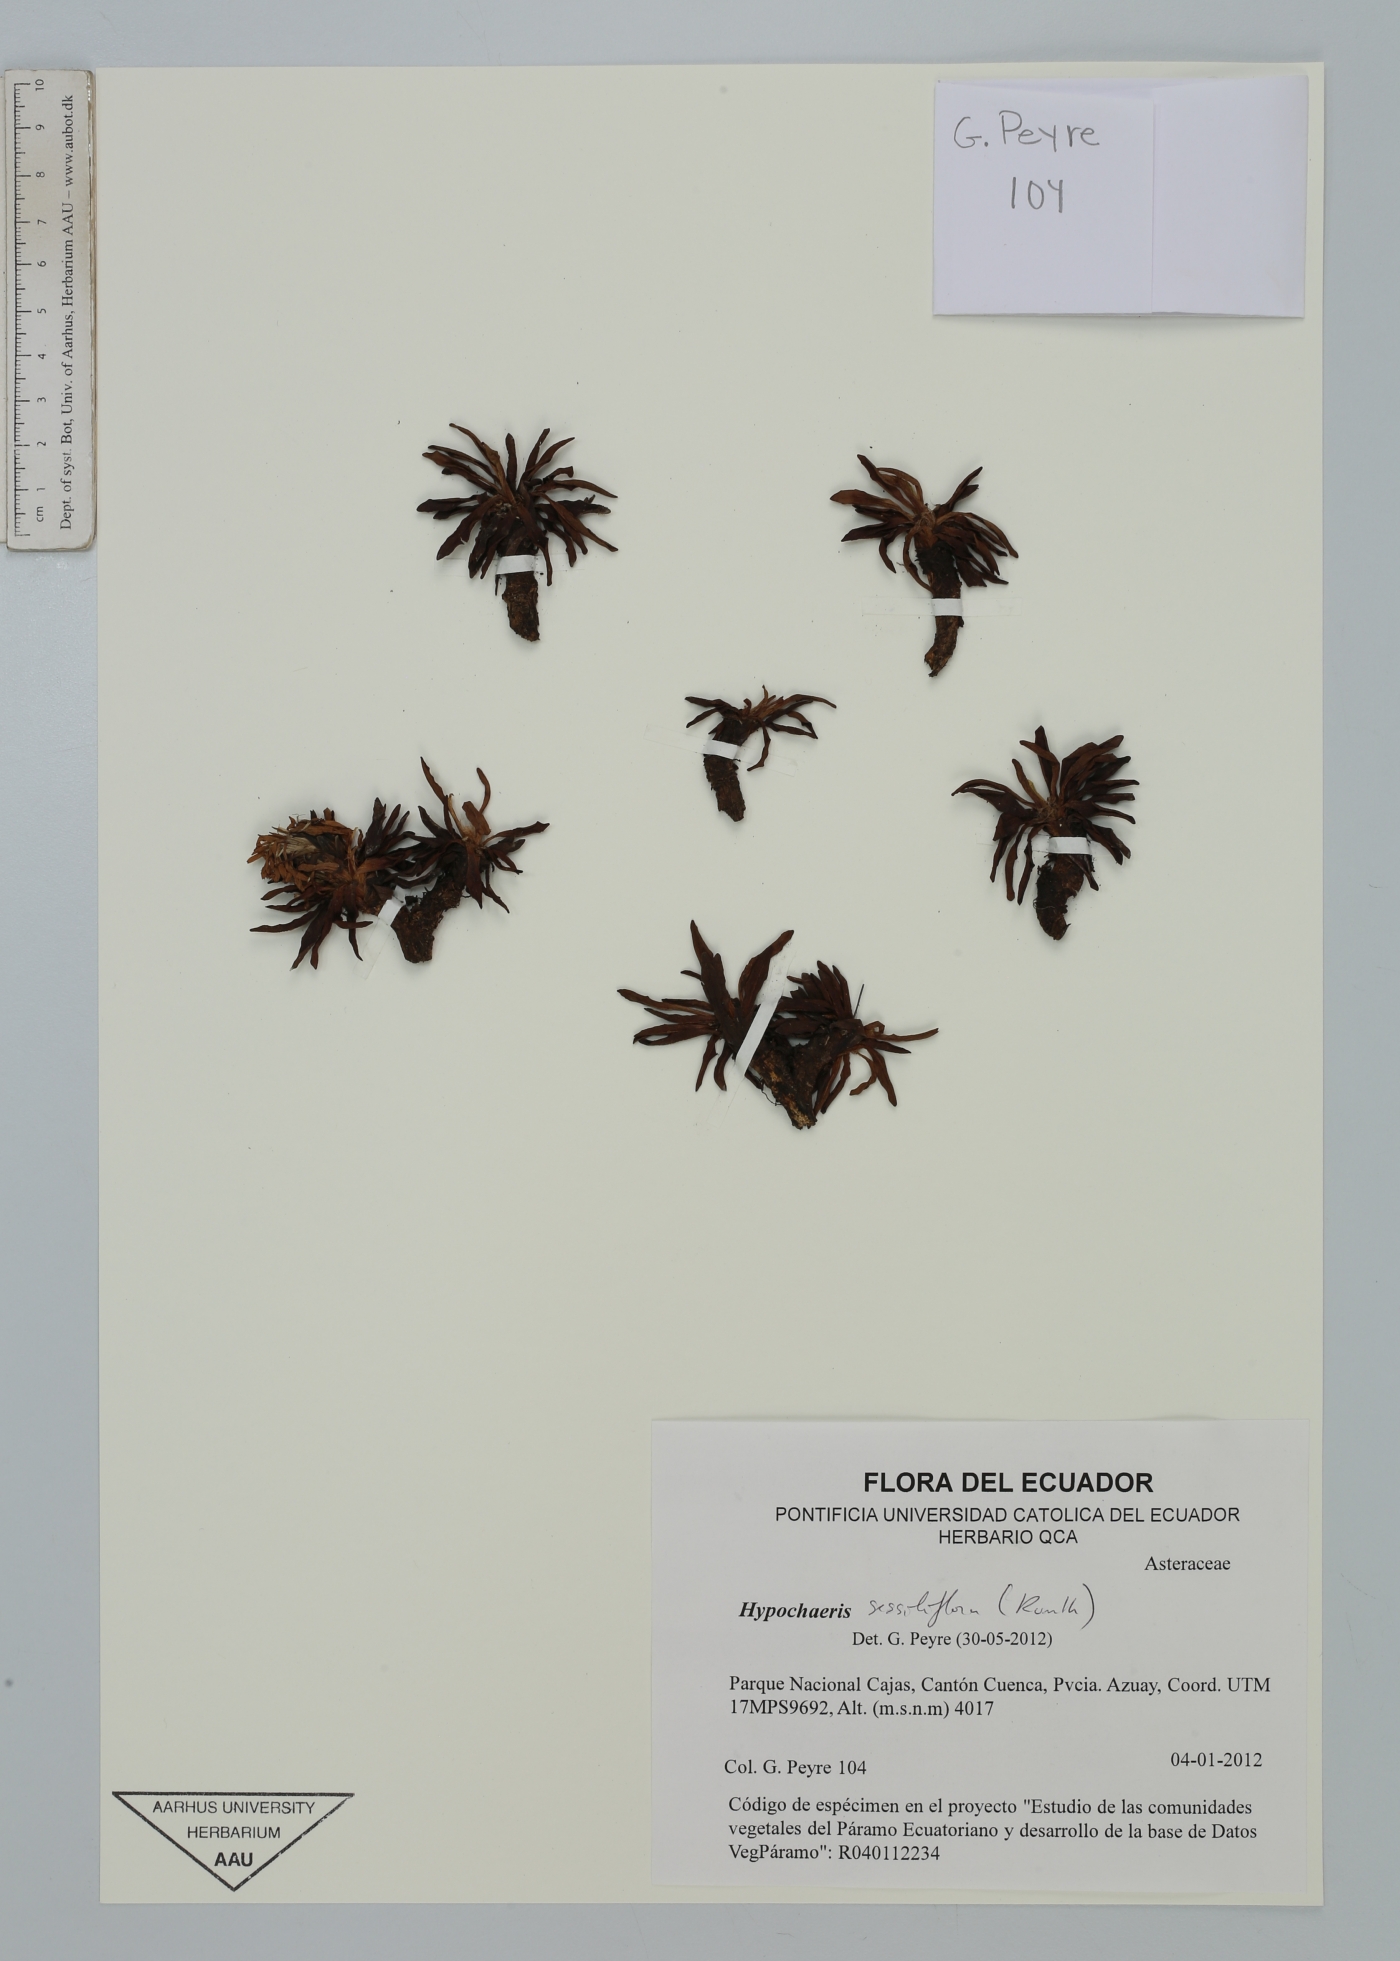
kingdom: Plantae
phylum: Tracheophyta
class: Magnoliopsida
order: Asterales
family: Asteraceae
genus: Hypochaeris
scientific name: Hypochaeris sessiliflora
